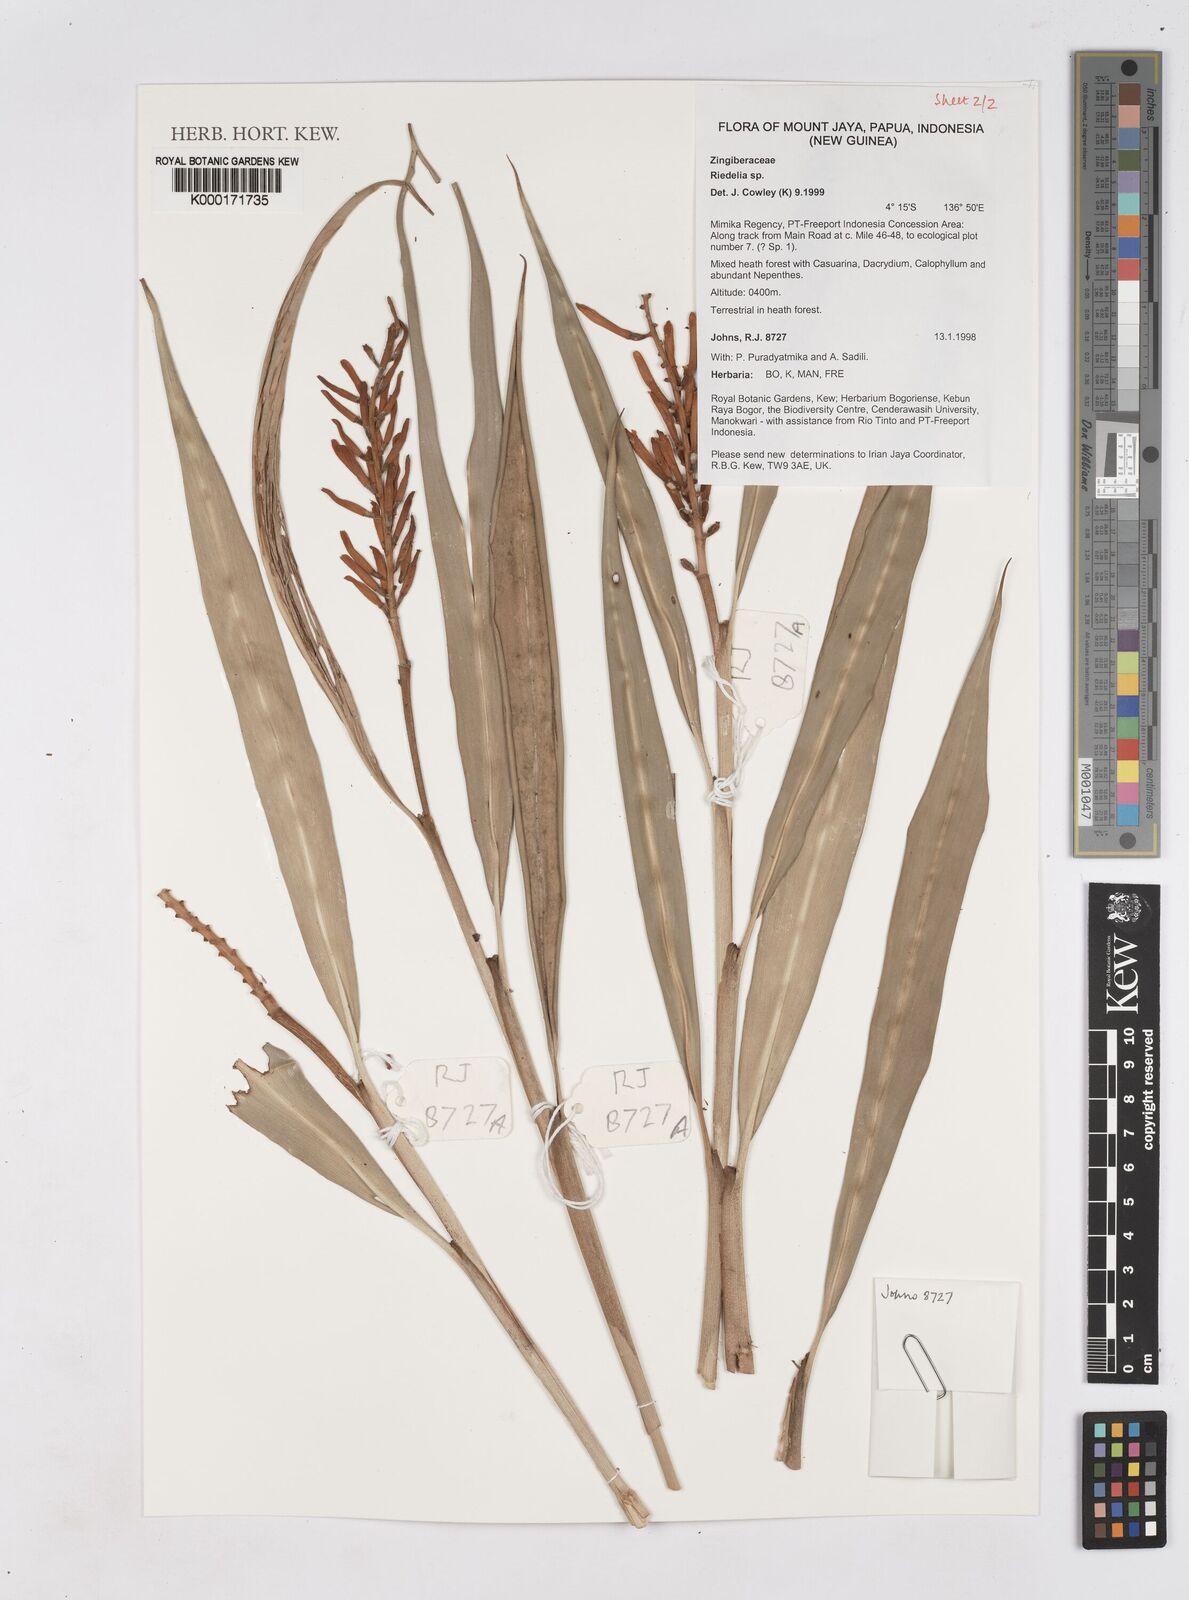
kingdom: Plantae
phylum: Tracheophyta
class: Liliopsida
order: Zingiberales
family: Zingiberaceae
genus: Riedelia
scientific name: Riedelia
